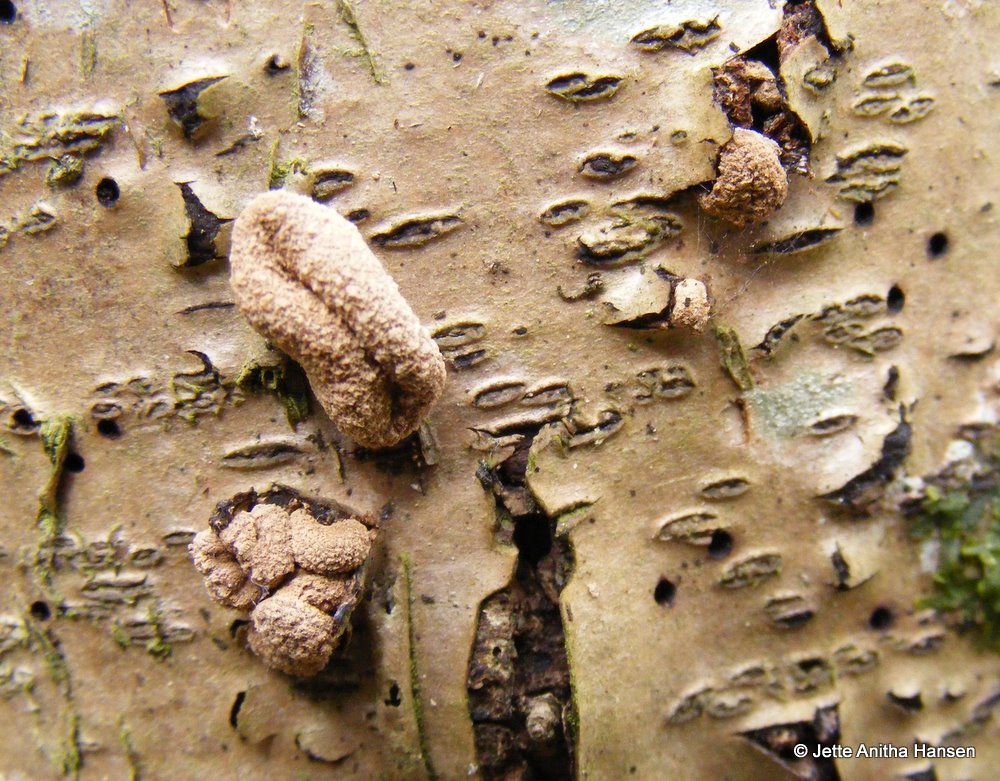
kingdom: Fungi
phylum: Ascomycota
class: Leotiomycetes
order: Helotiales
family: Cenangiaceae
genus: Encoelia
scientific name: Encoelia furfuracea
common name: hassel-læderskive
